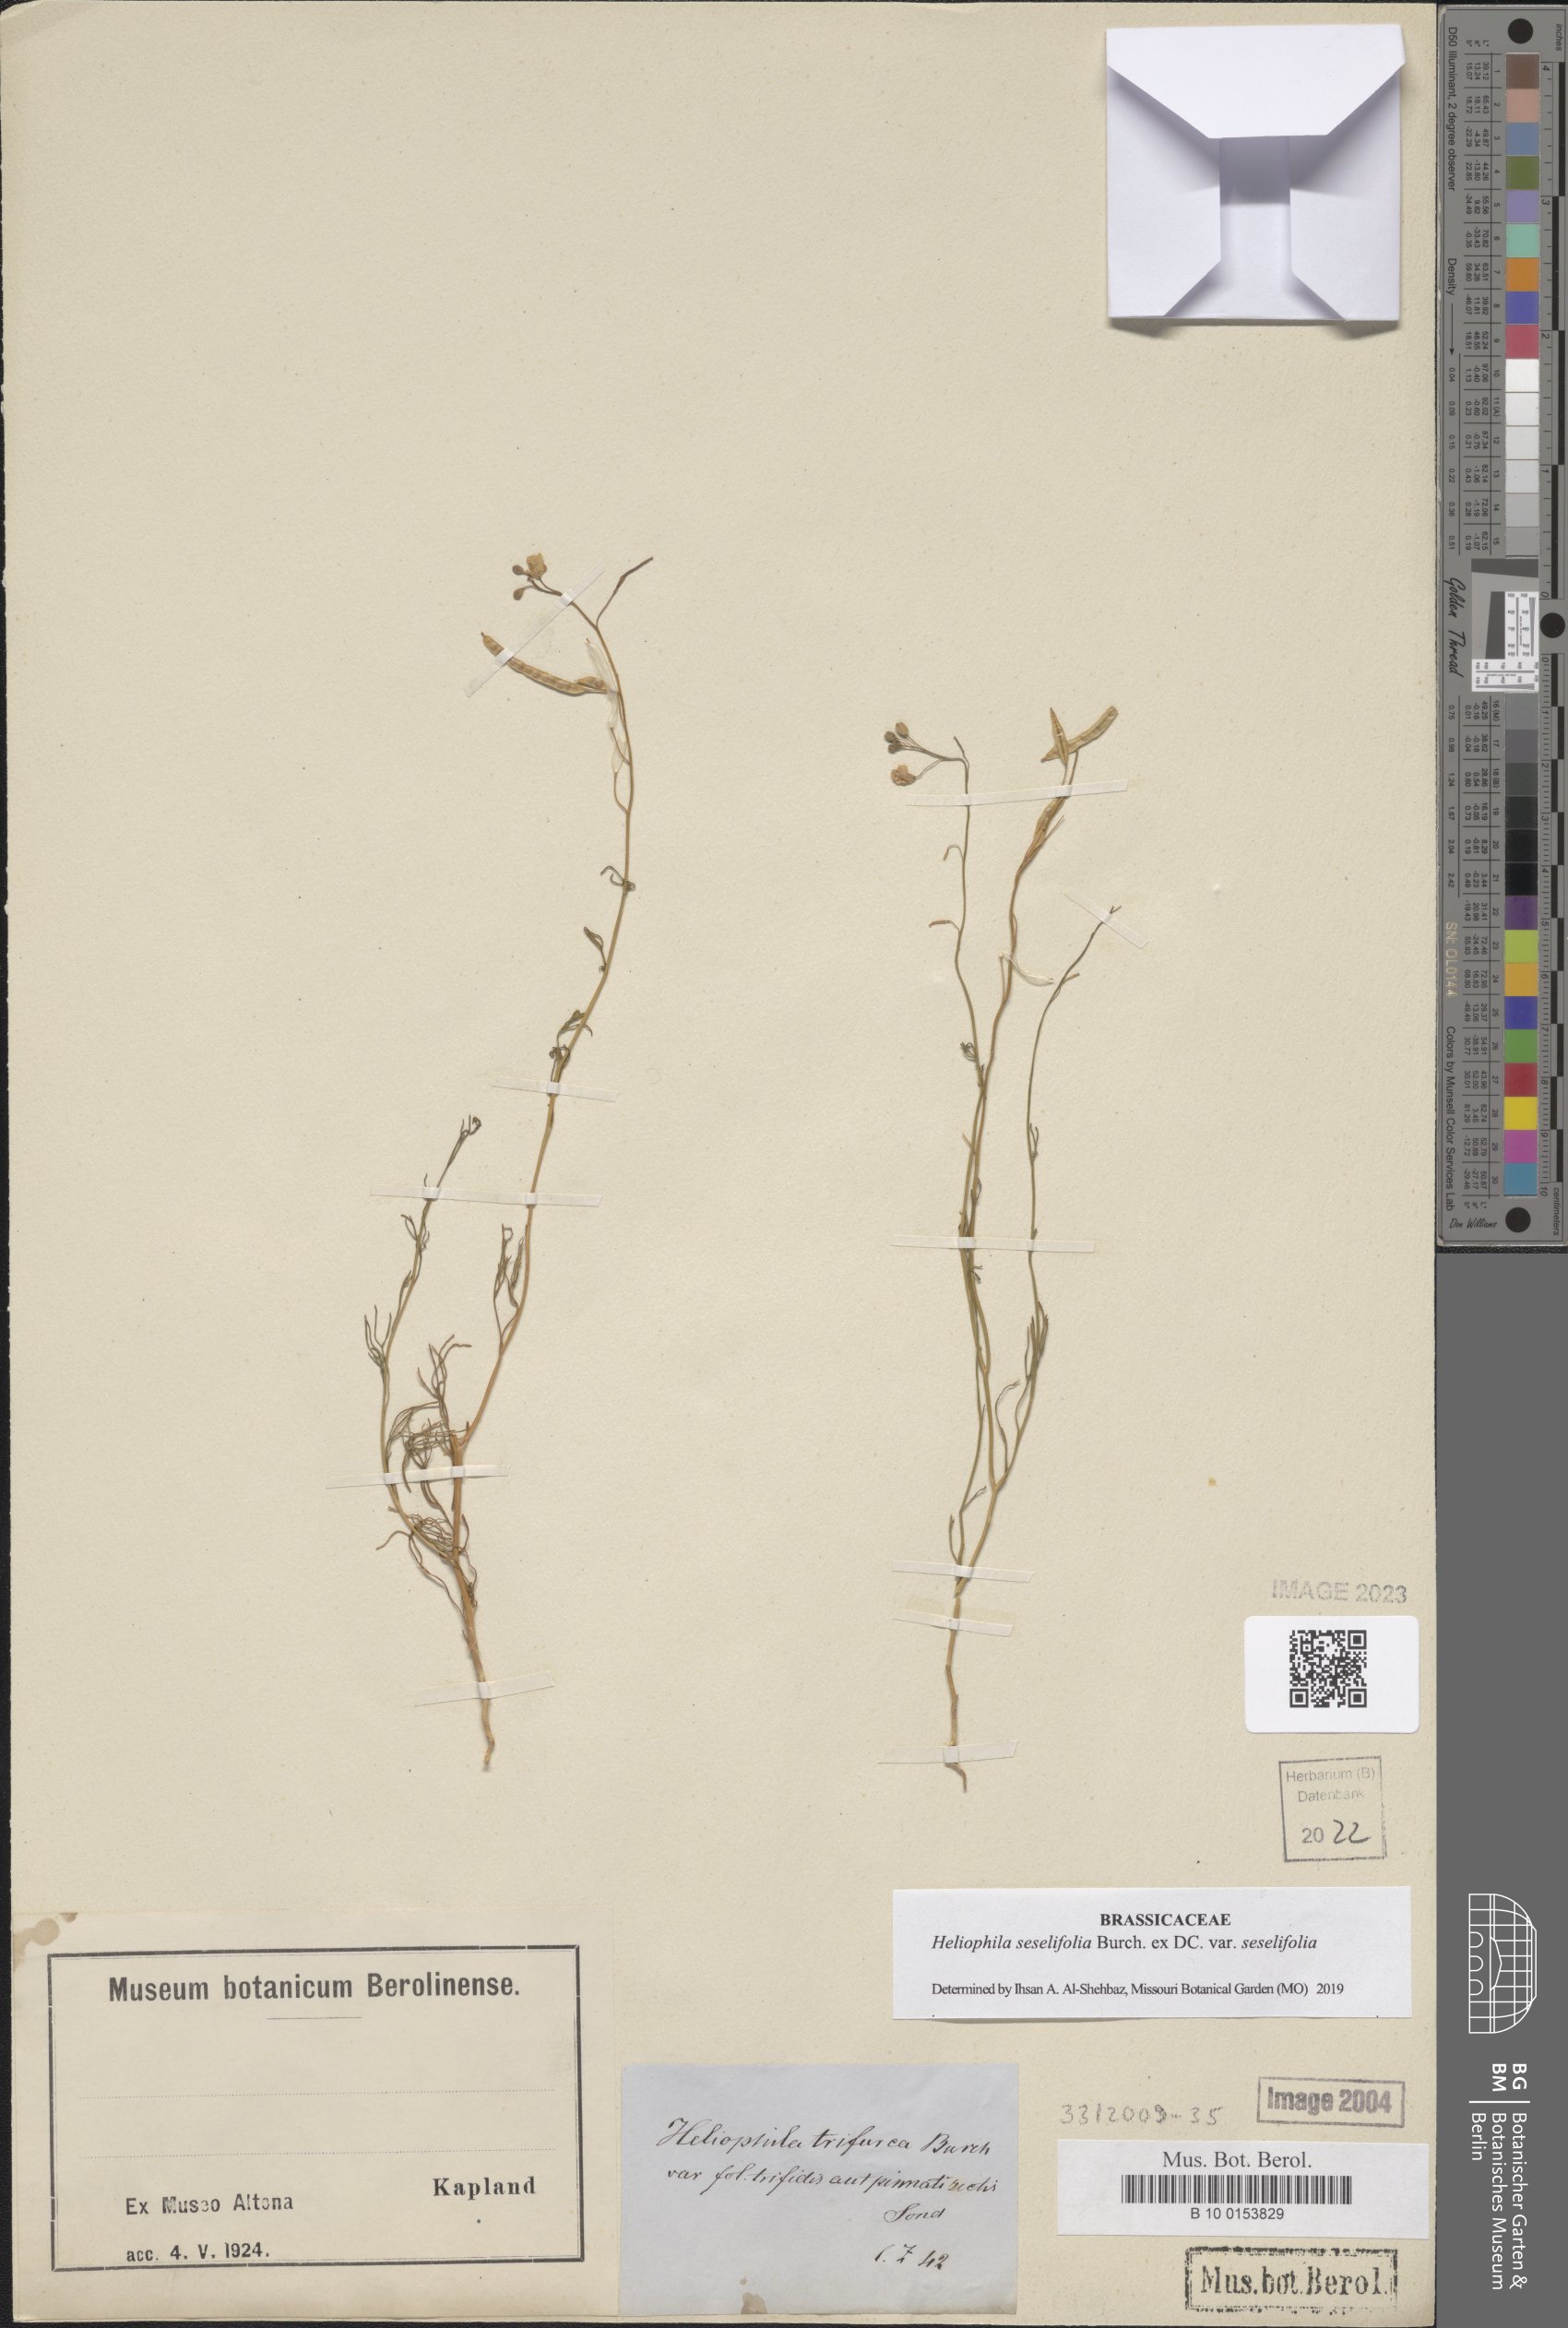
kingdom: Plantae
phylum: Tracheophyta
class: Magnoliopsida
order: Brassicales
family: Brassicaceae
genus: Heliophila
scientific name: Heliophila seselifolia
